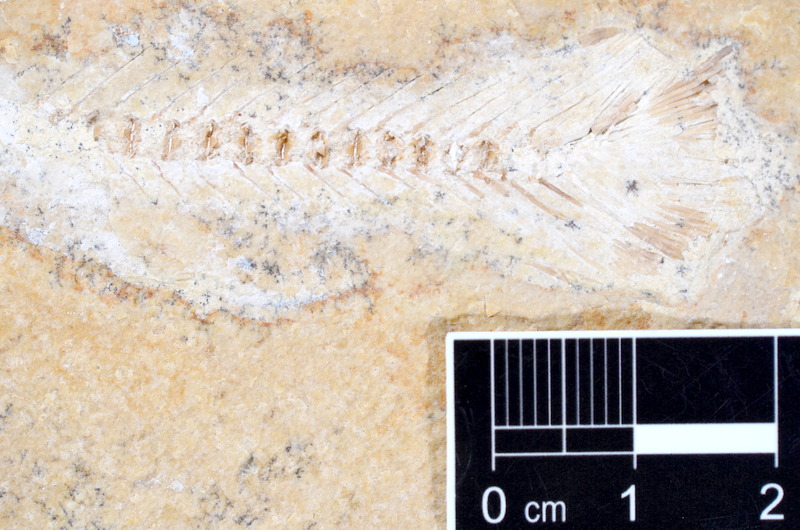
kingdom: Animalia
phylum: Chordata
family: Ascalaboidae
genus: Tharsis
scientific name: Tharsis dubius
